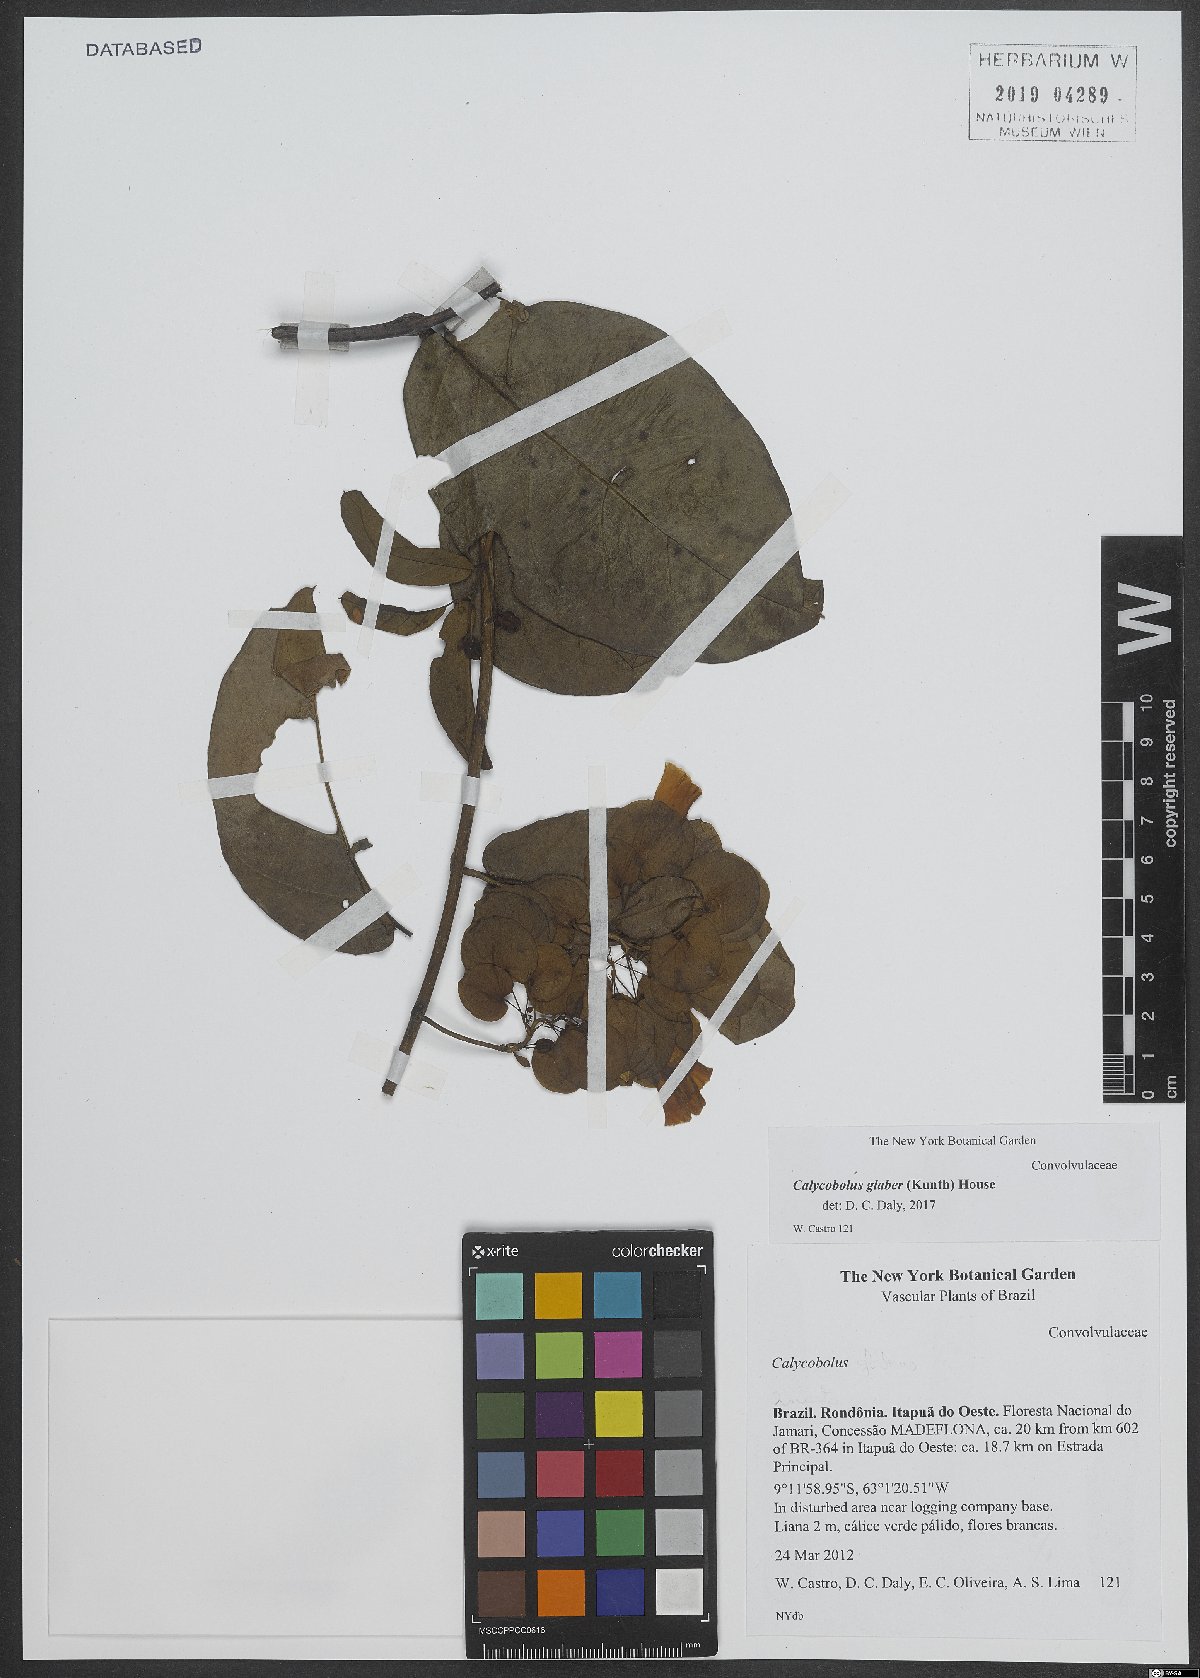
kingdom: Plantae
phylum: Tracheophyta
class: Magnoliopsida
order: Solanales
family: Convolvulaceae
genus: Calycobolus
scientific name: Calycobolus glaber
